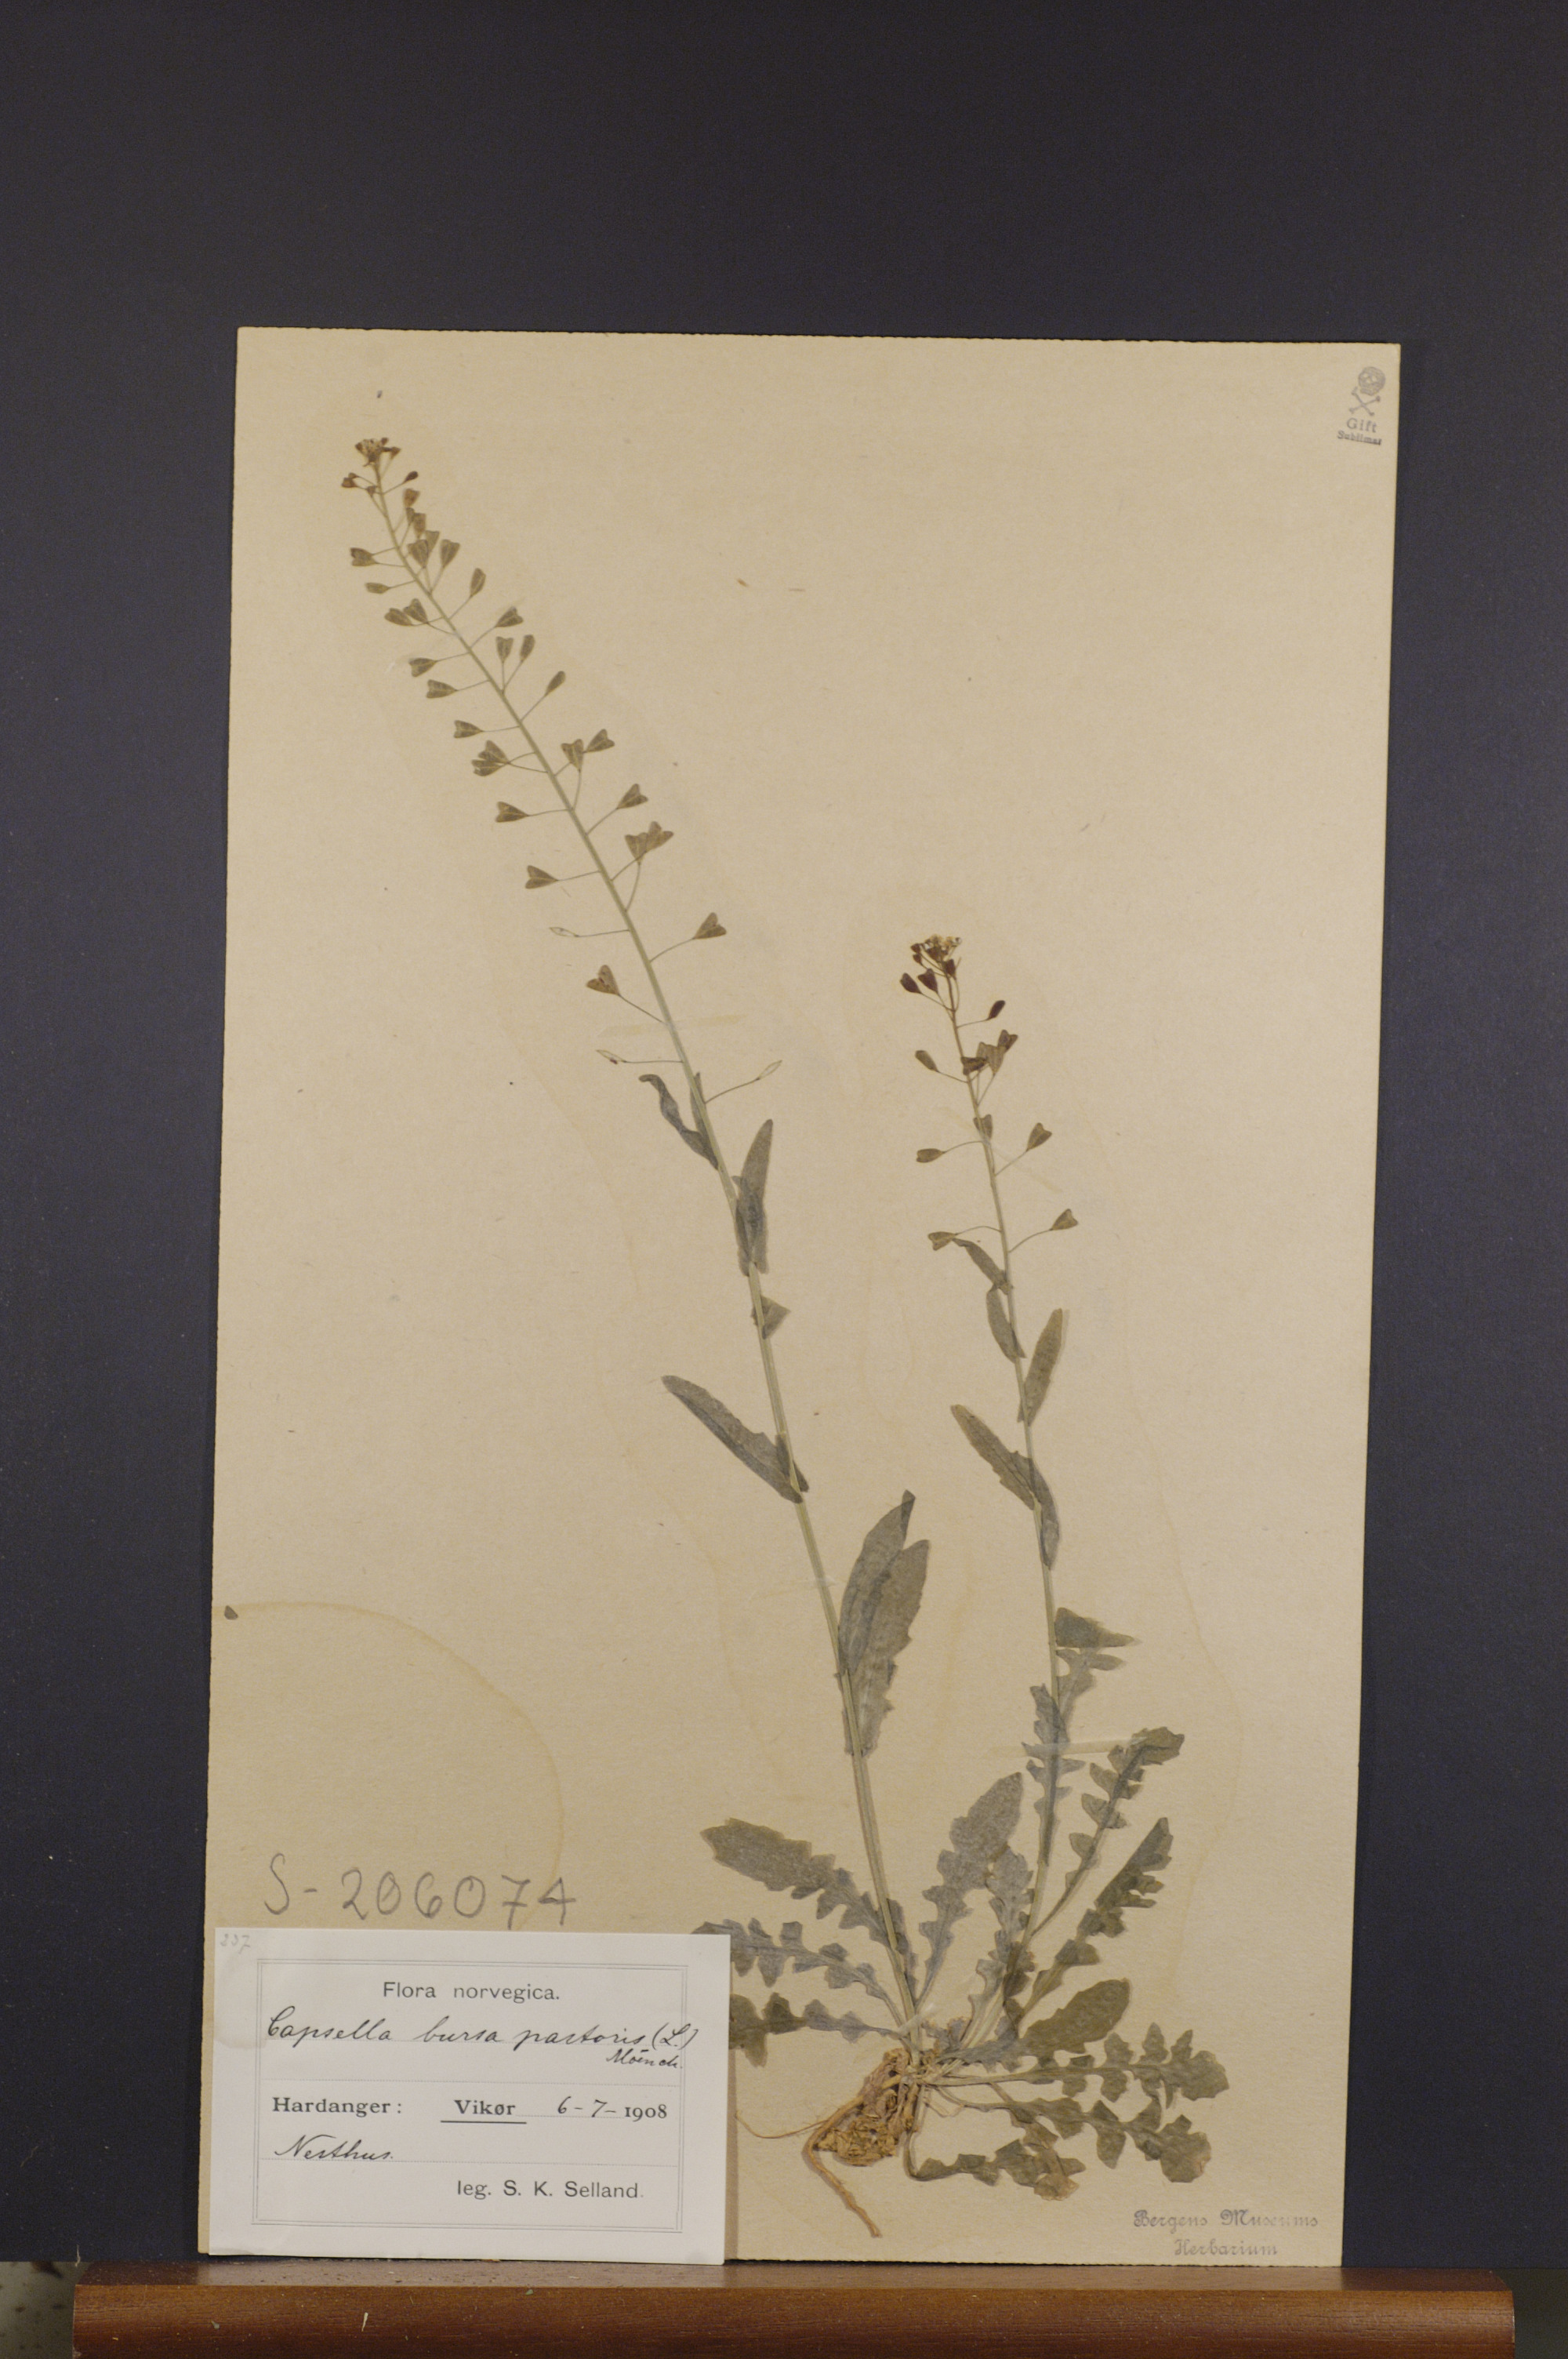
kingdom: Plantae
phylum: Tracheophyta
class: Magnoliopsida
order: Brassicales
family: Brassicaceae
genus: Capsella
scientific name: Capsella bursa-pastoris
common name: Shepherd's purse
